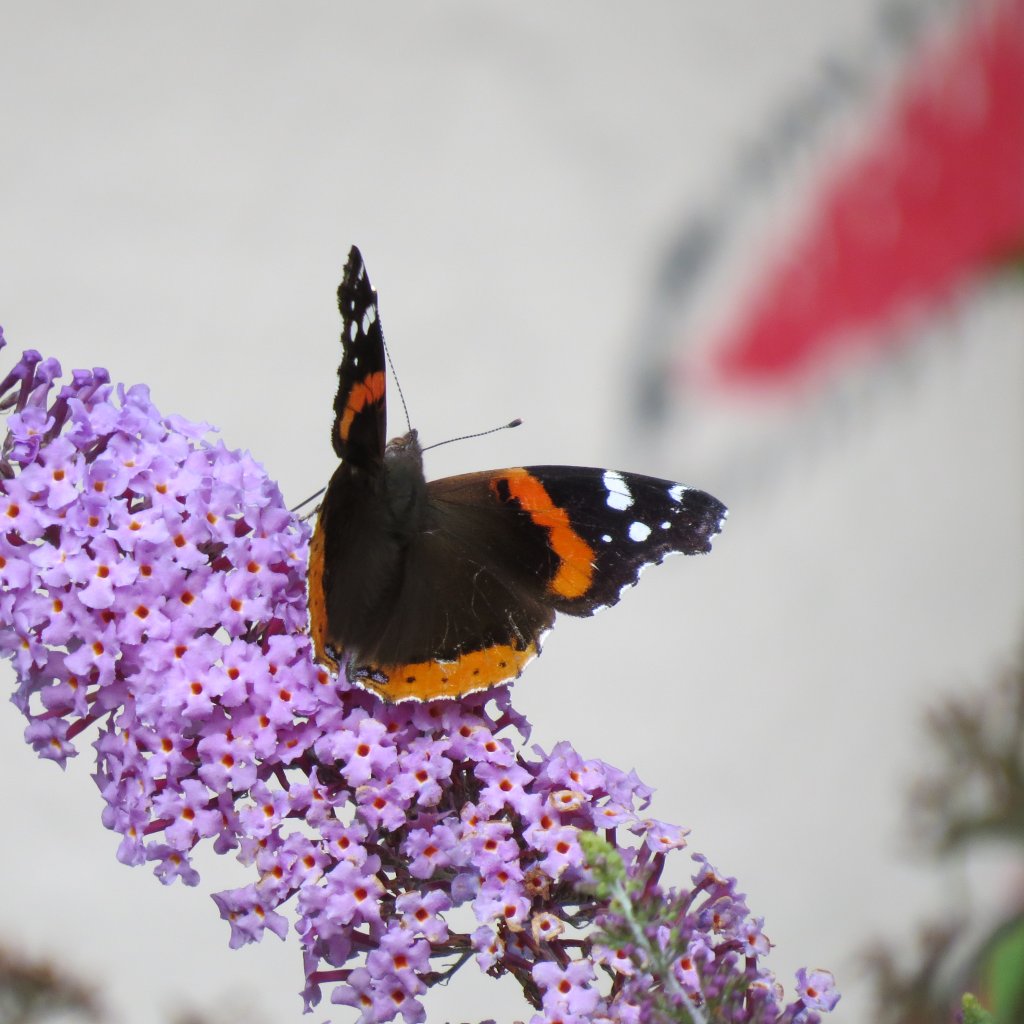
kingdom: Animalia
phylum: Arthropoda
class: Insecta
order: Lepidoptera
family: Nymphalidae
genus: Vanessa
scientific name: Vanessa atalanta
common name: Red Admiral
